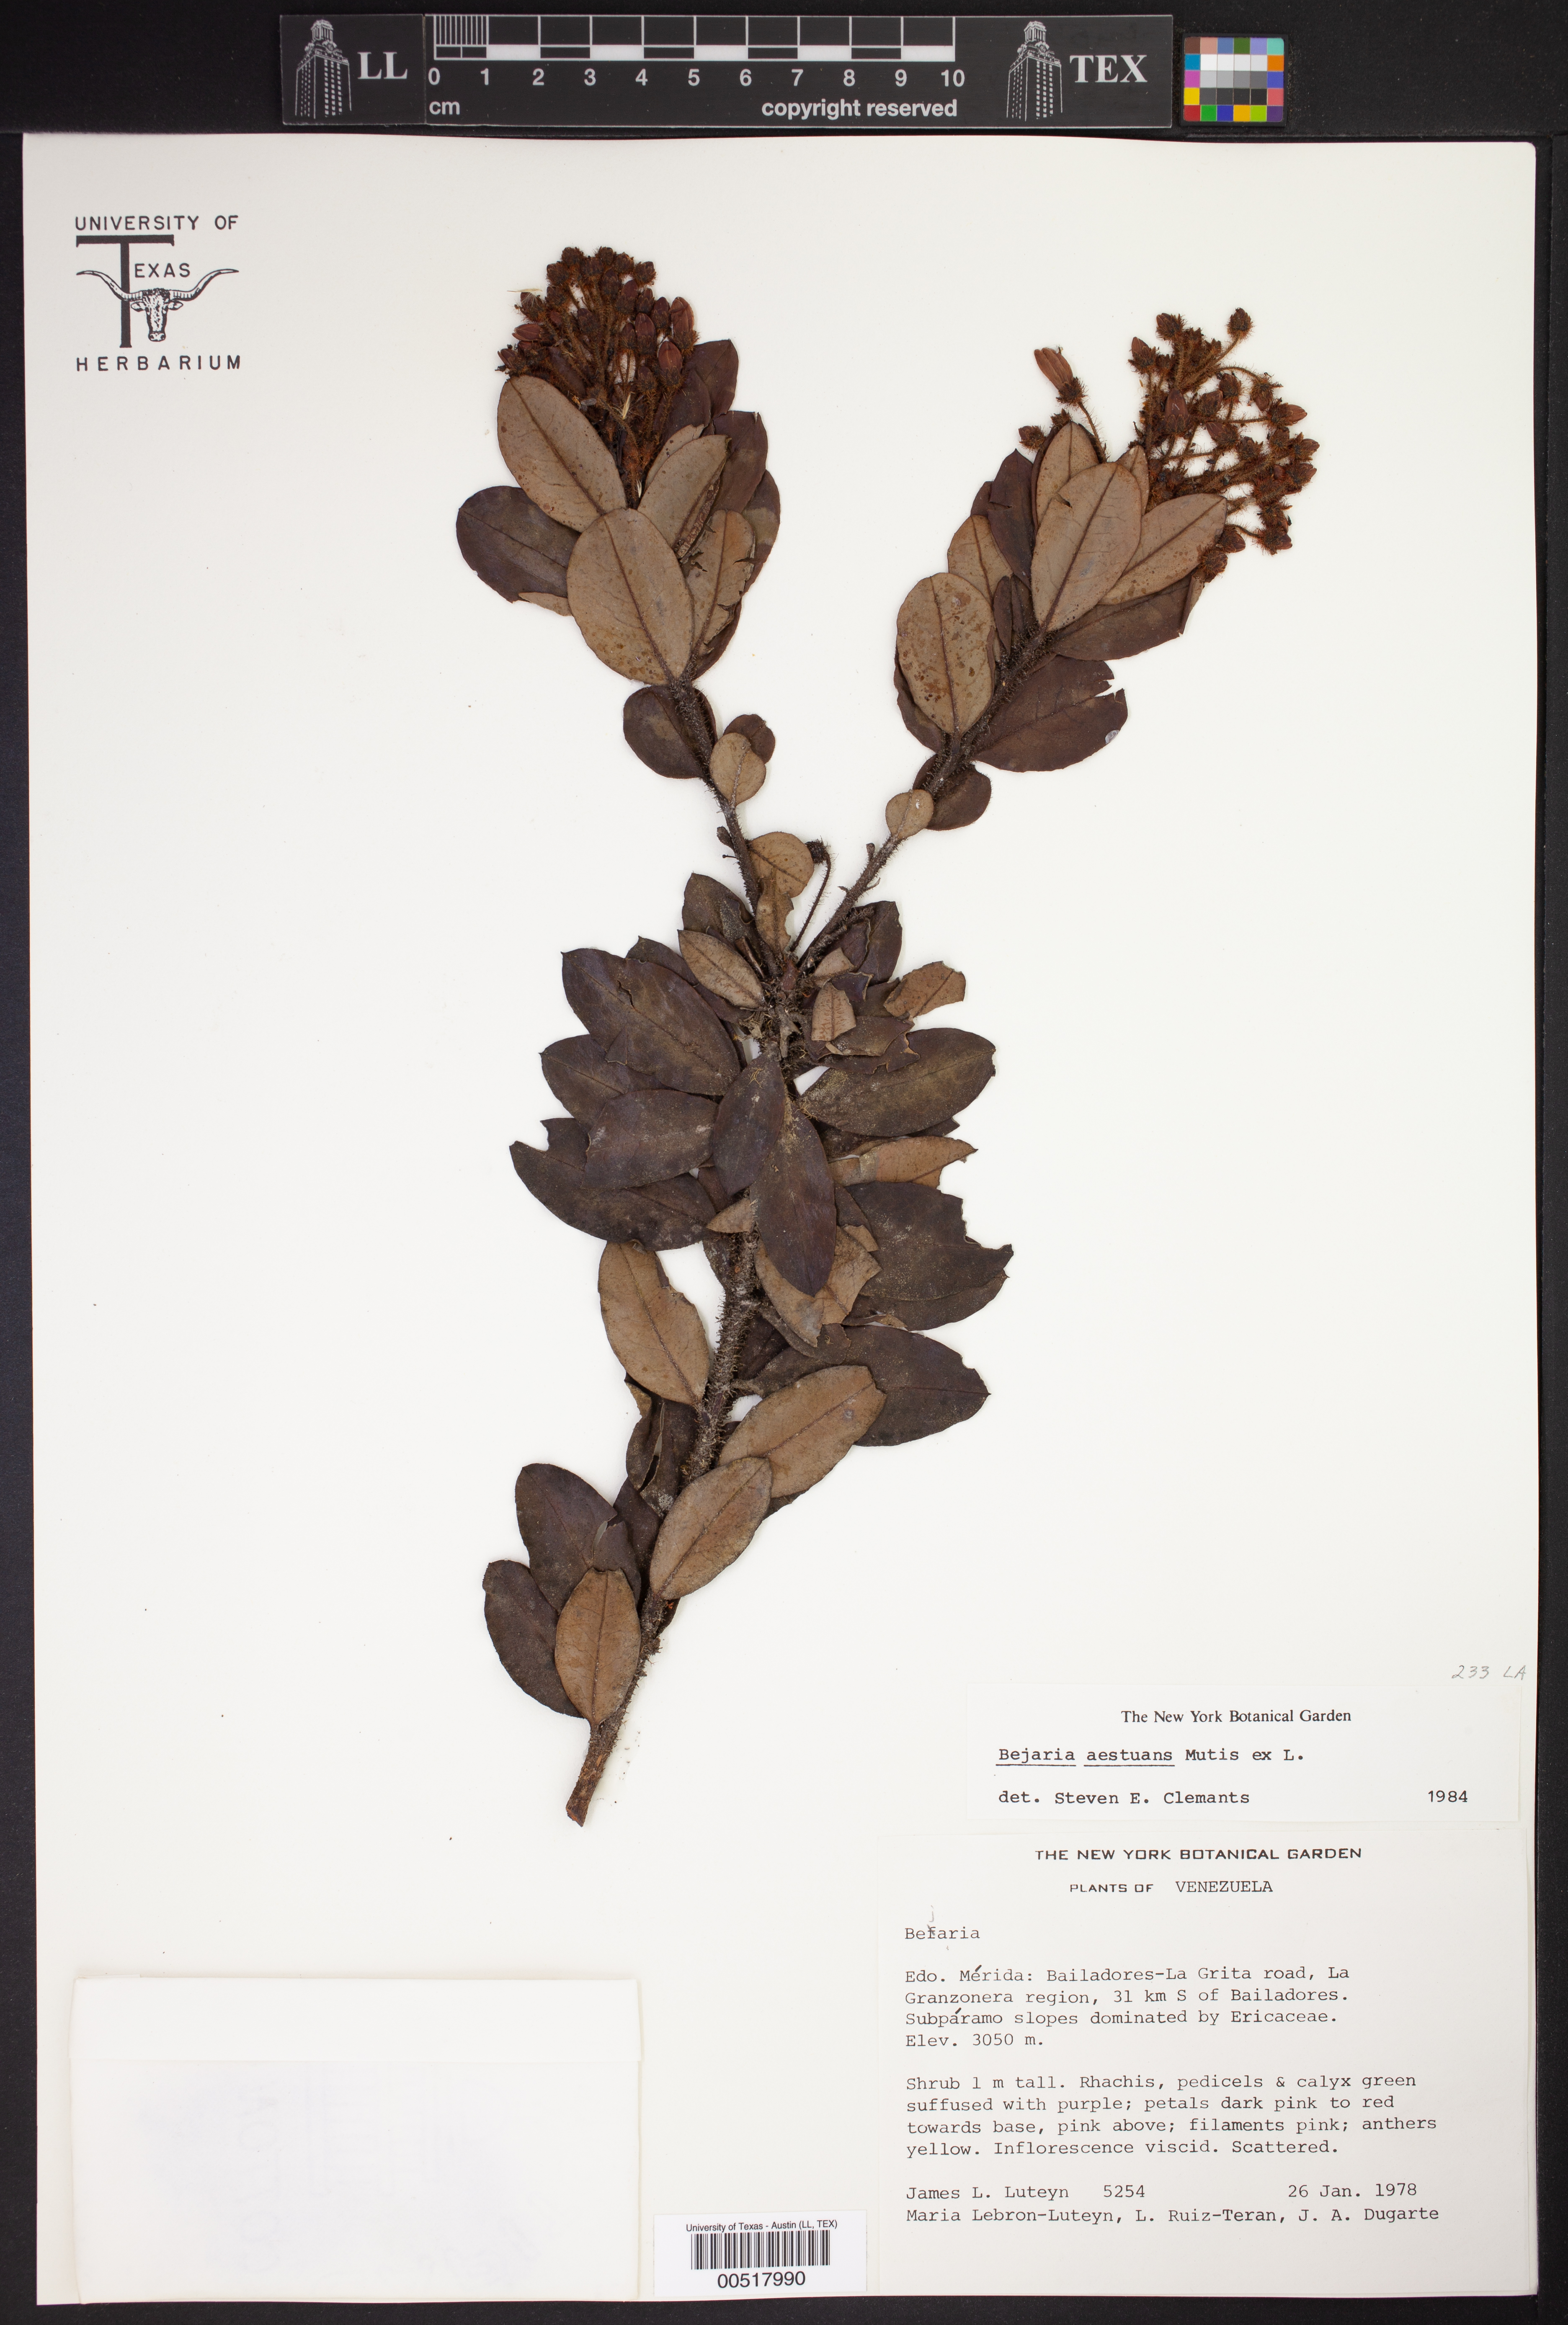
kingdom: Plantae
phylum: Tracheophyta
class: Magnoliopsida
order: Ericales
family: Ericaceae
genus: Bejaria
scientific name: Bejaria aestuans
